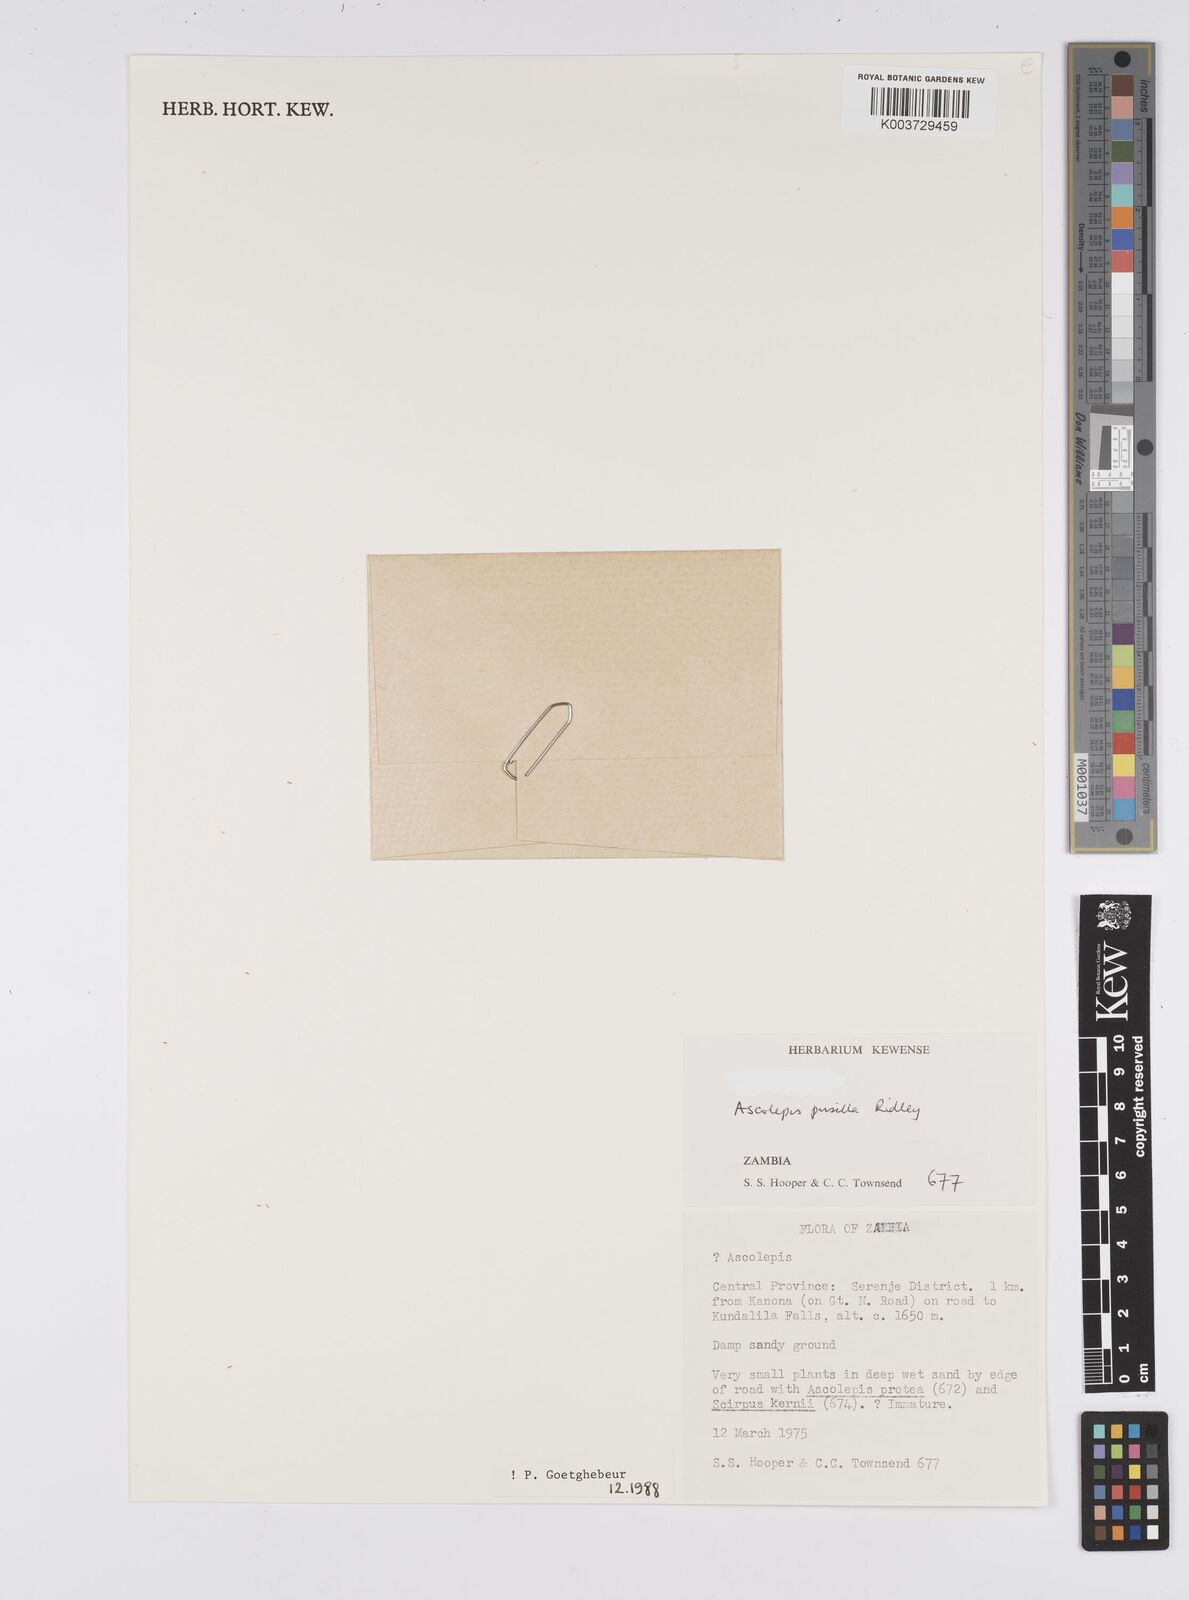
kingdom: Plantae
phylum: Tracheophyta
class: Liliopsida
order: Poales
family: Cyperaceae
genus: Cyperus
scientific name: Cyperus
